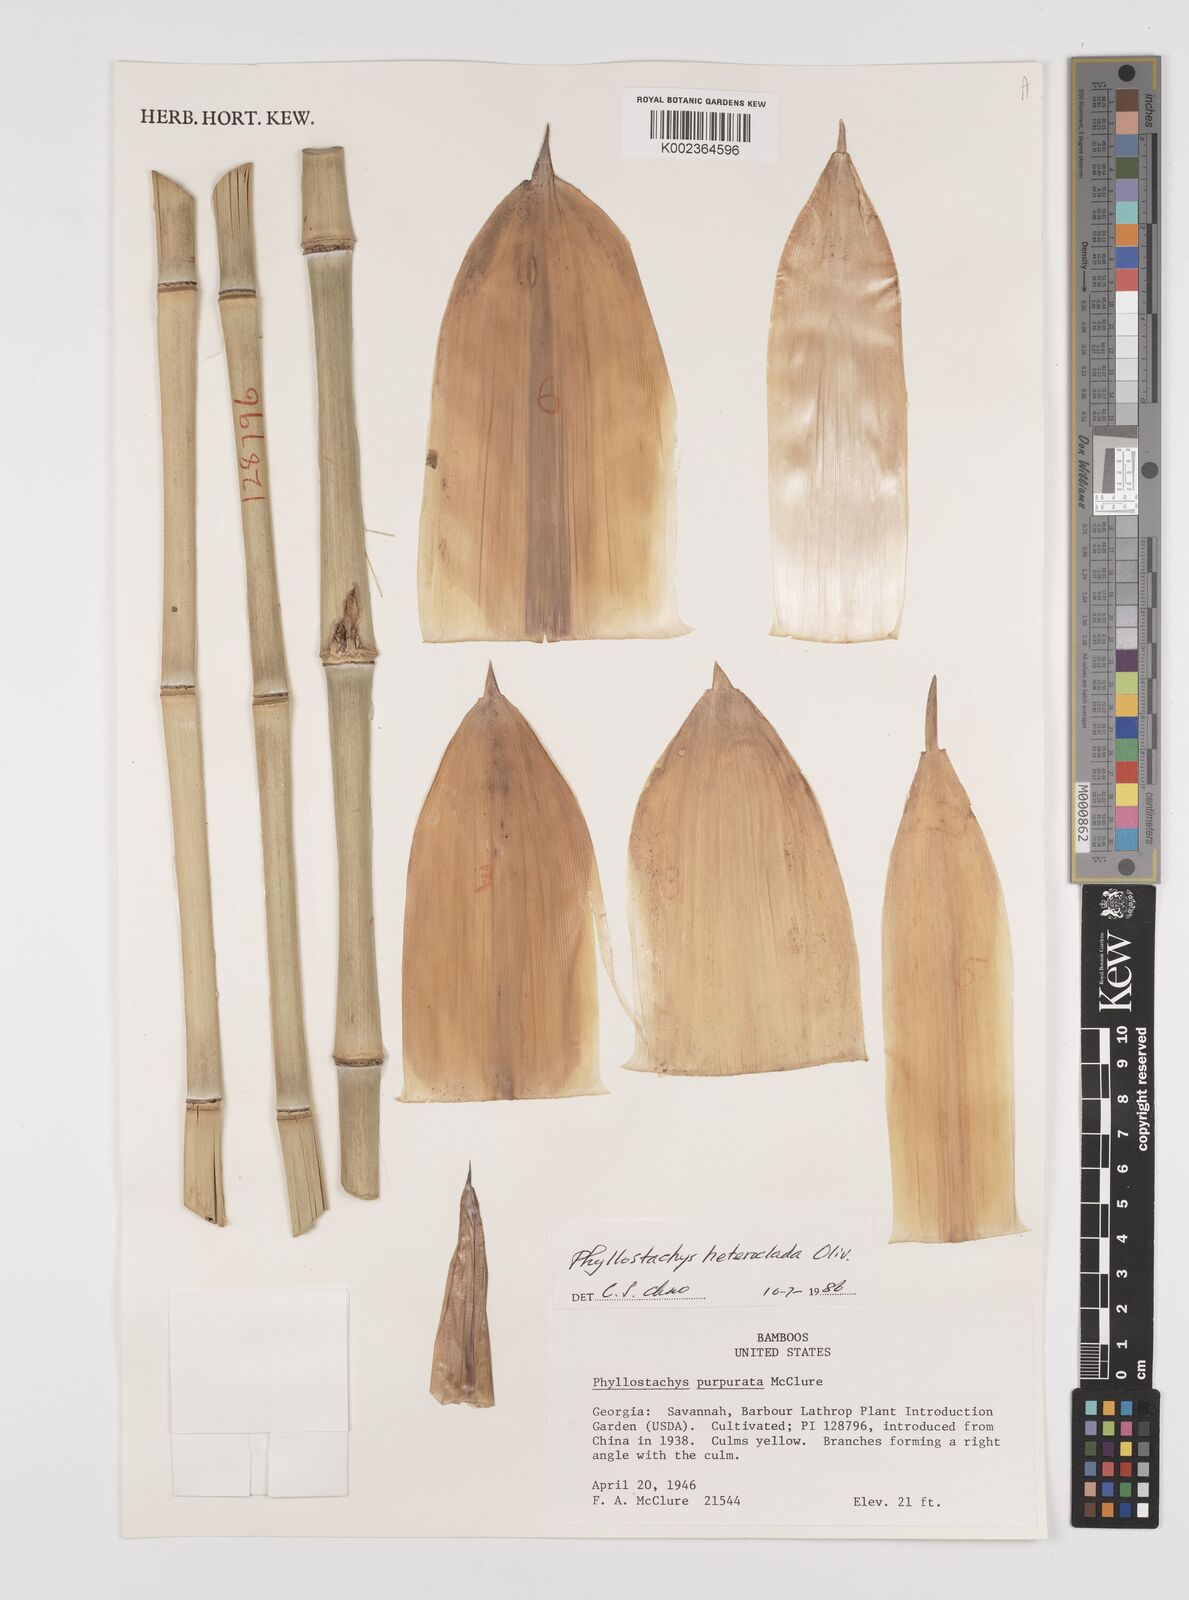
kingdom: Plantae
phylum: Tracheophyta
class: Liliopsida
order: Poales
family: Poaceae
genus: Phyllostachys
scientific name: Phyllostachys heteroclada
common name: Fishscale bamboo
